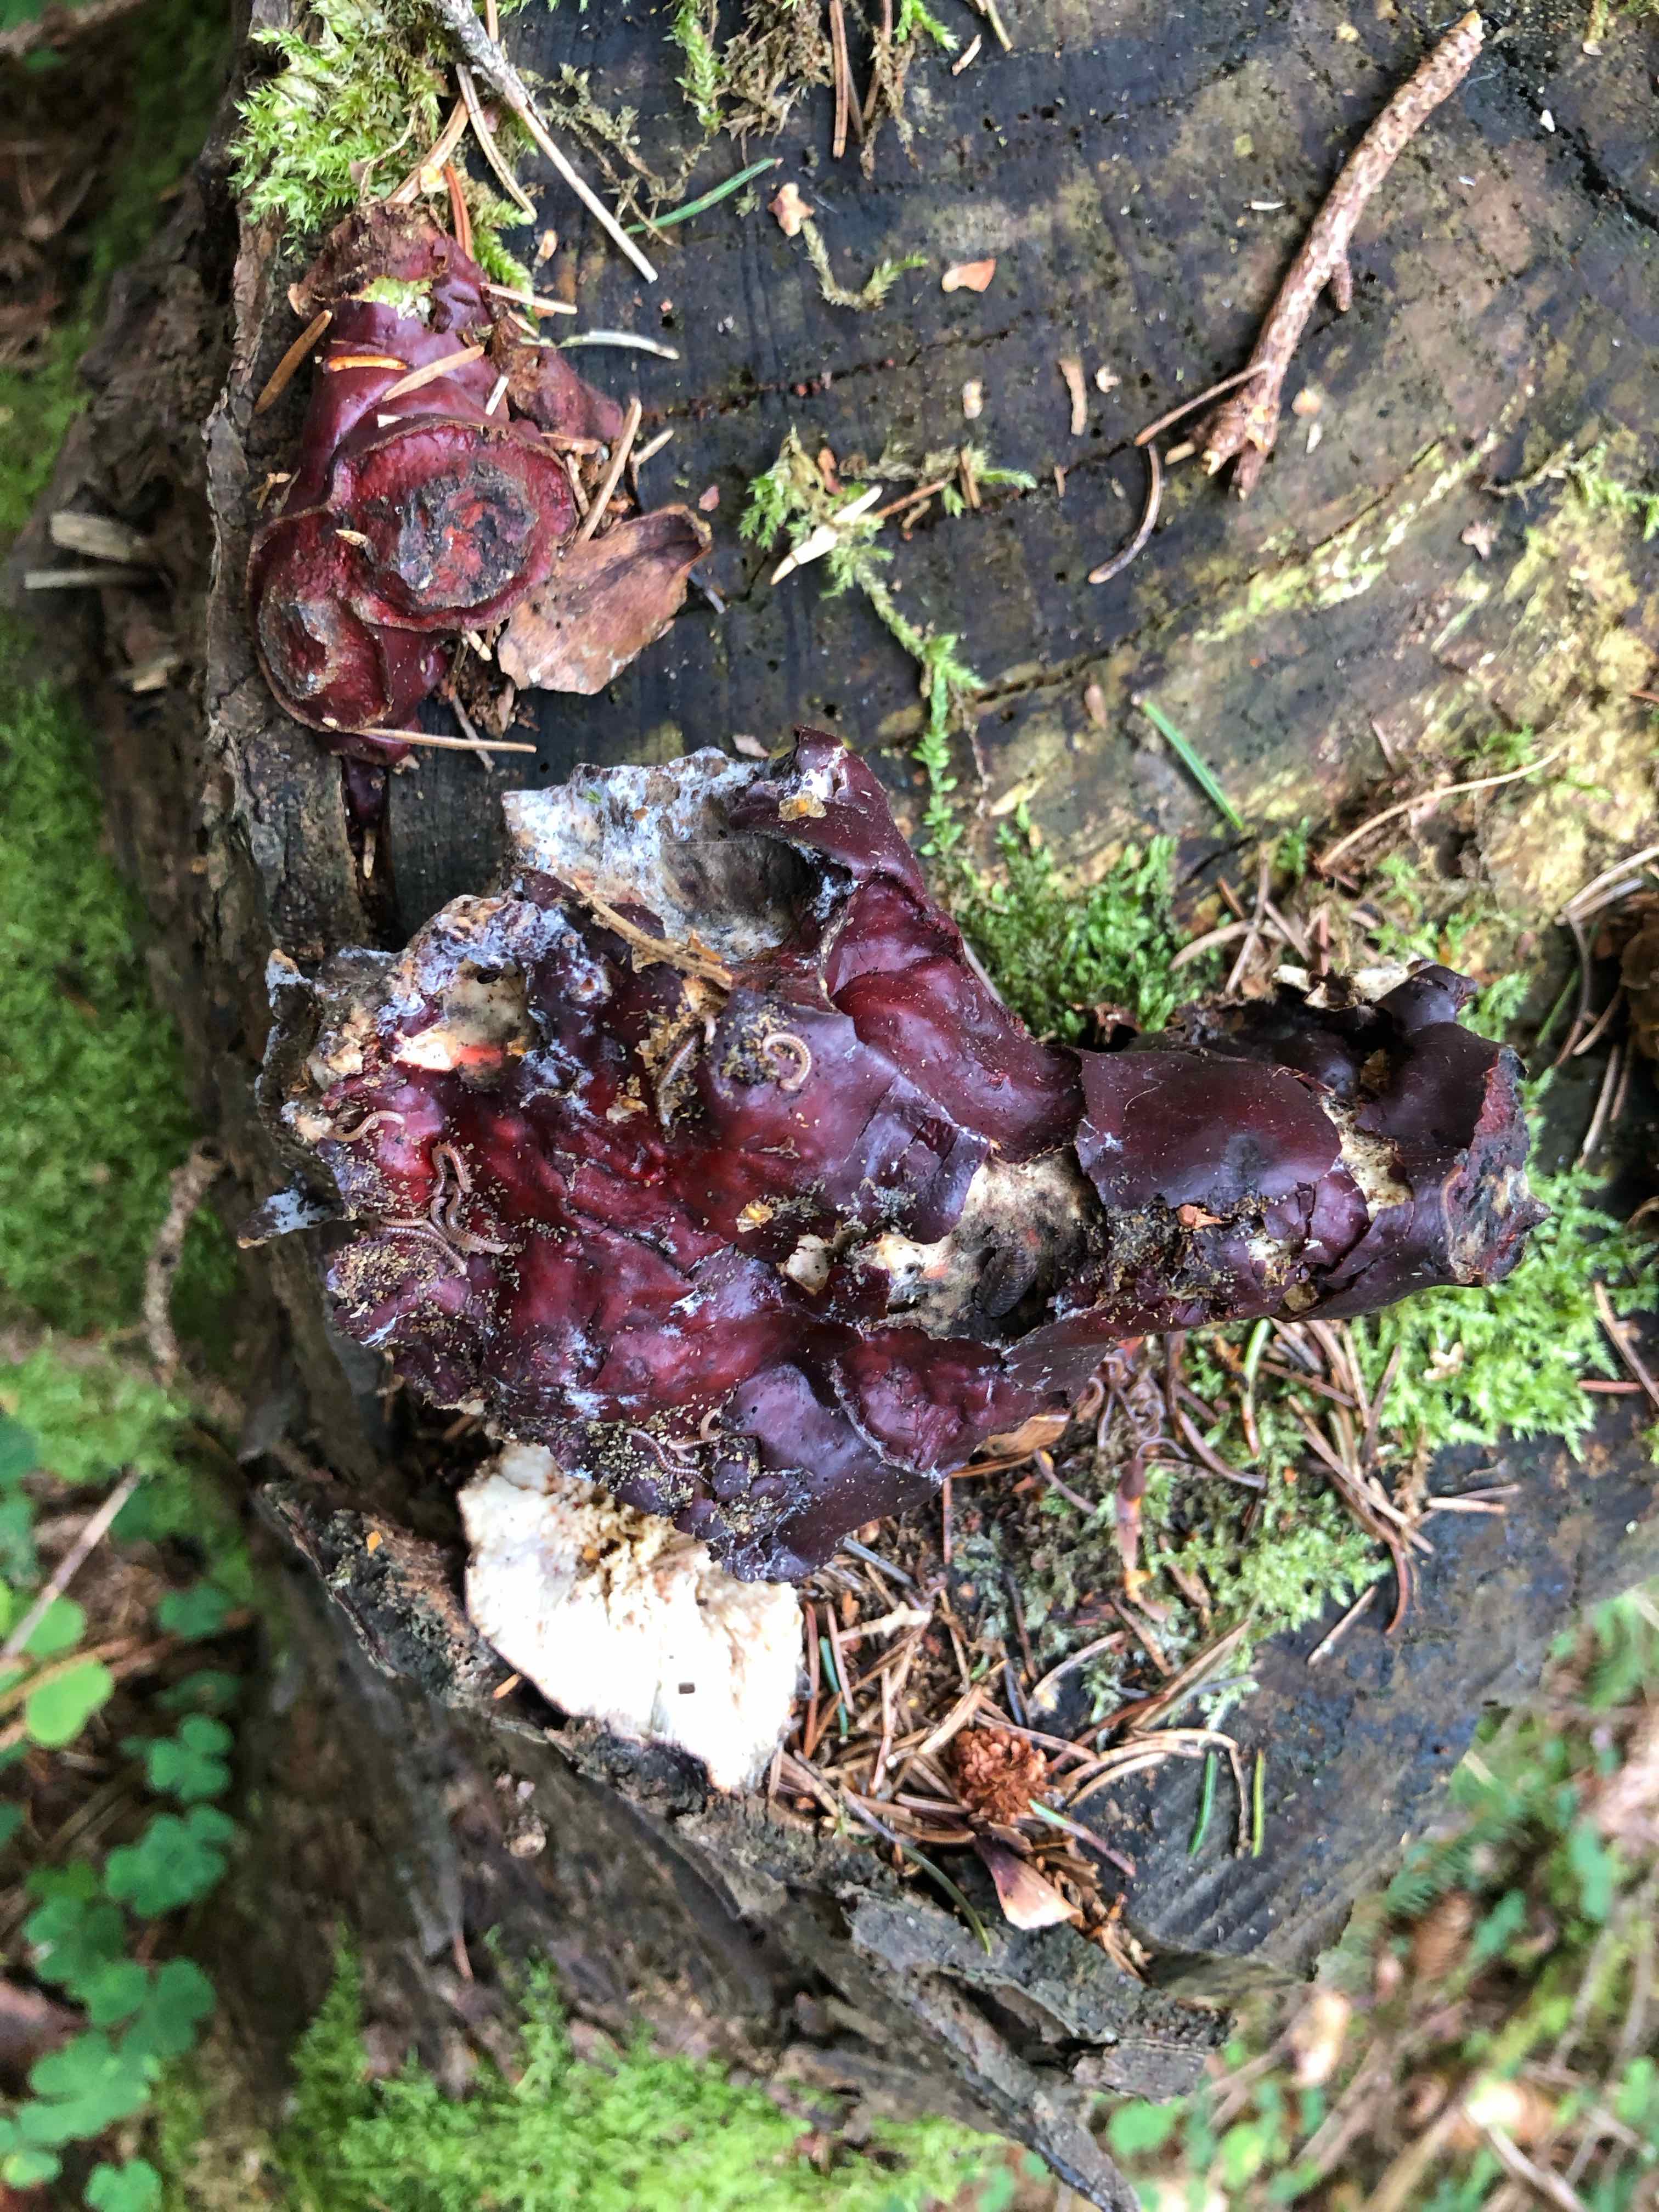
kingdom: Fungi
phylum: Basidiomycota
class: Agaricomycetes
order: Polyporales
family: Polyporaceae
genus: Ganoderma
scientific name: Ganoderma lucidum
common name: skinnende lakporesvamp
